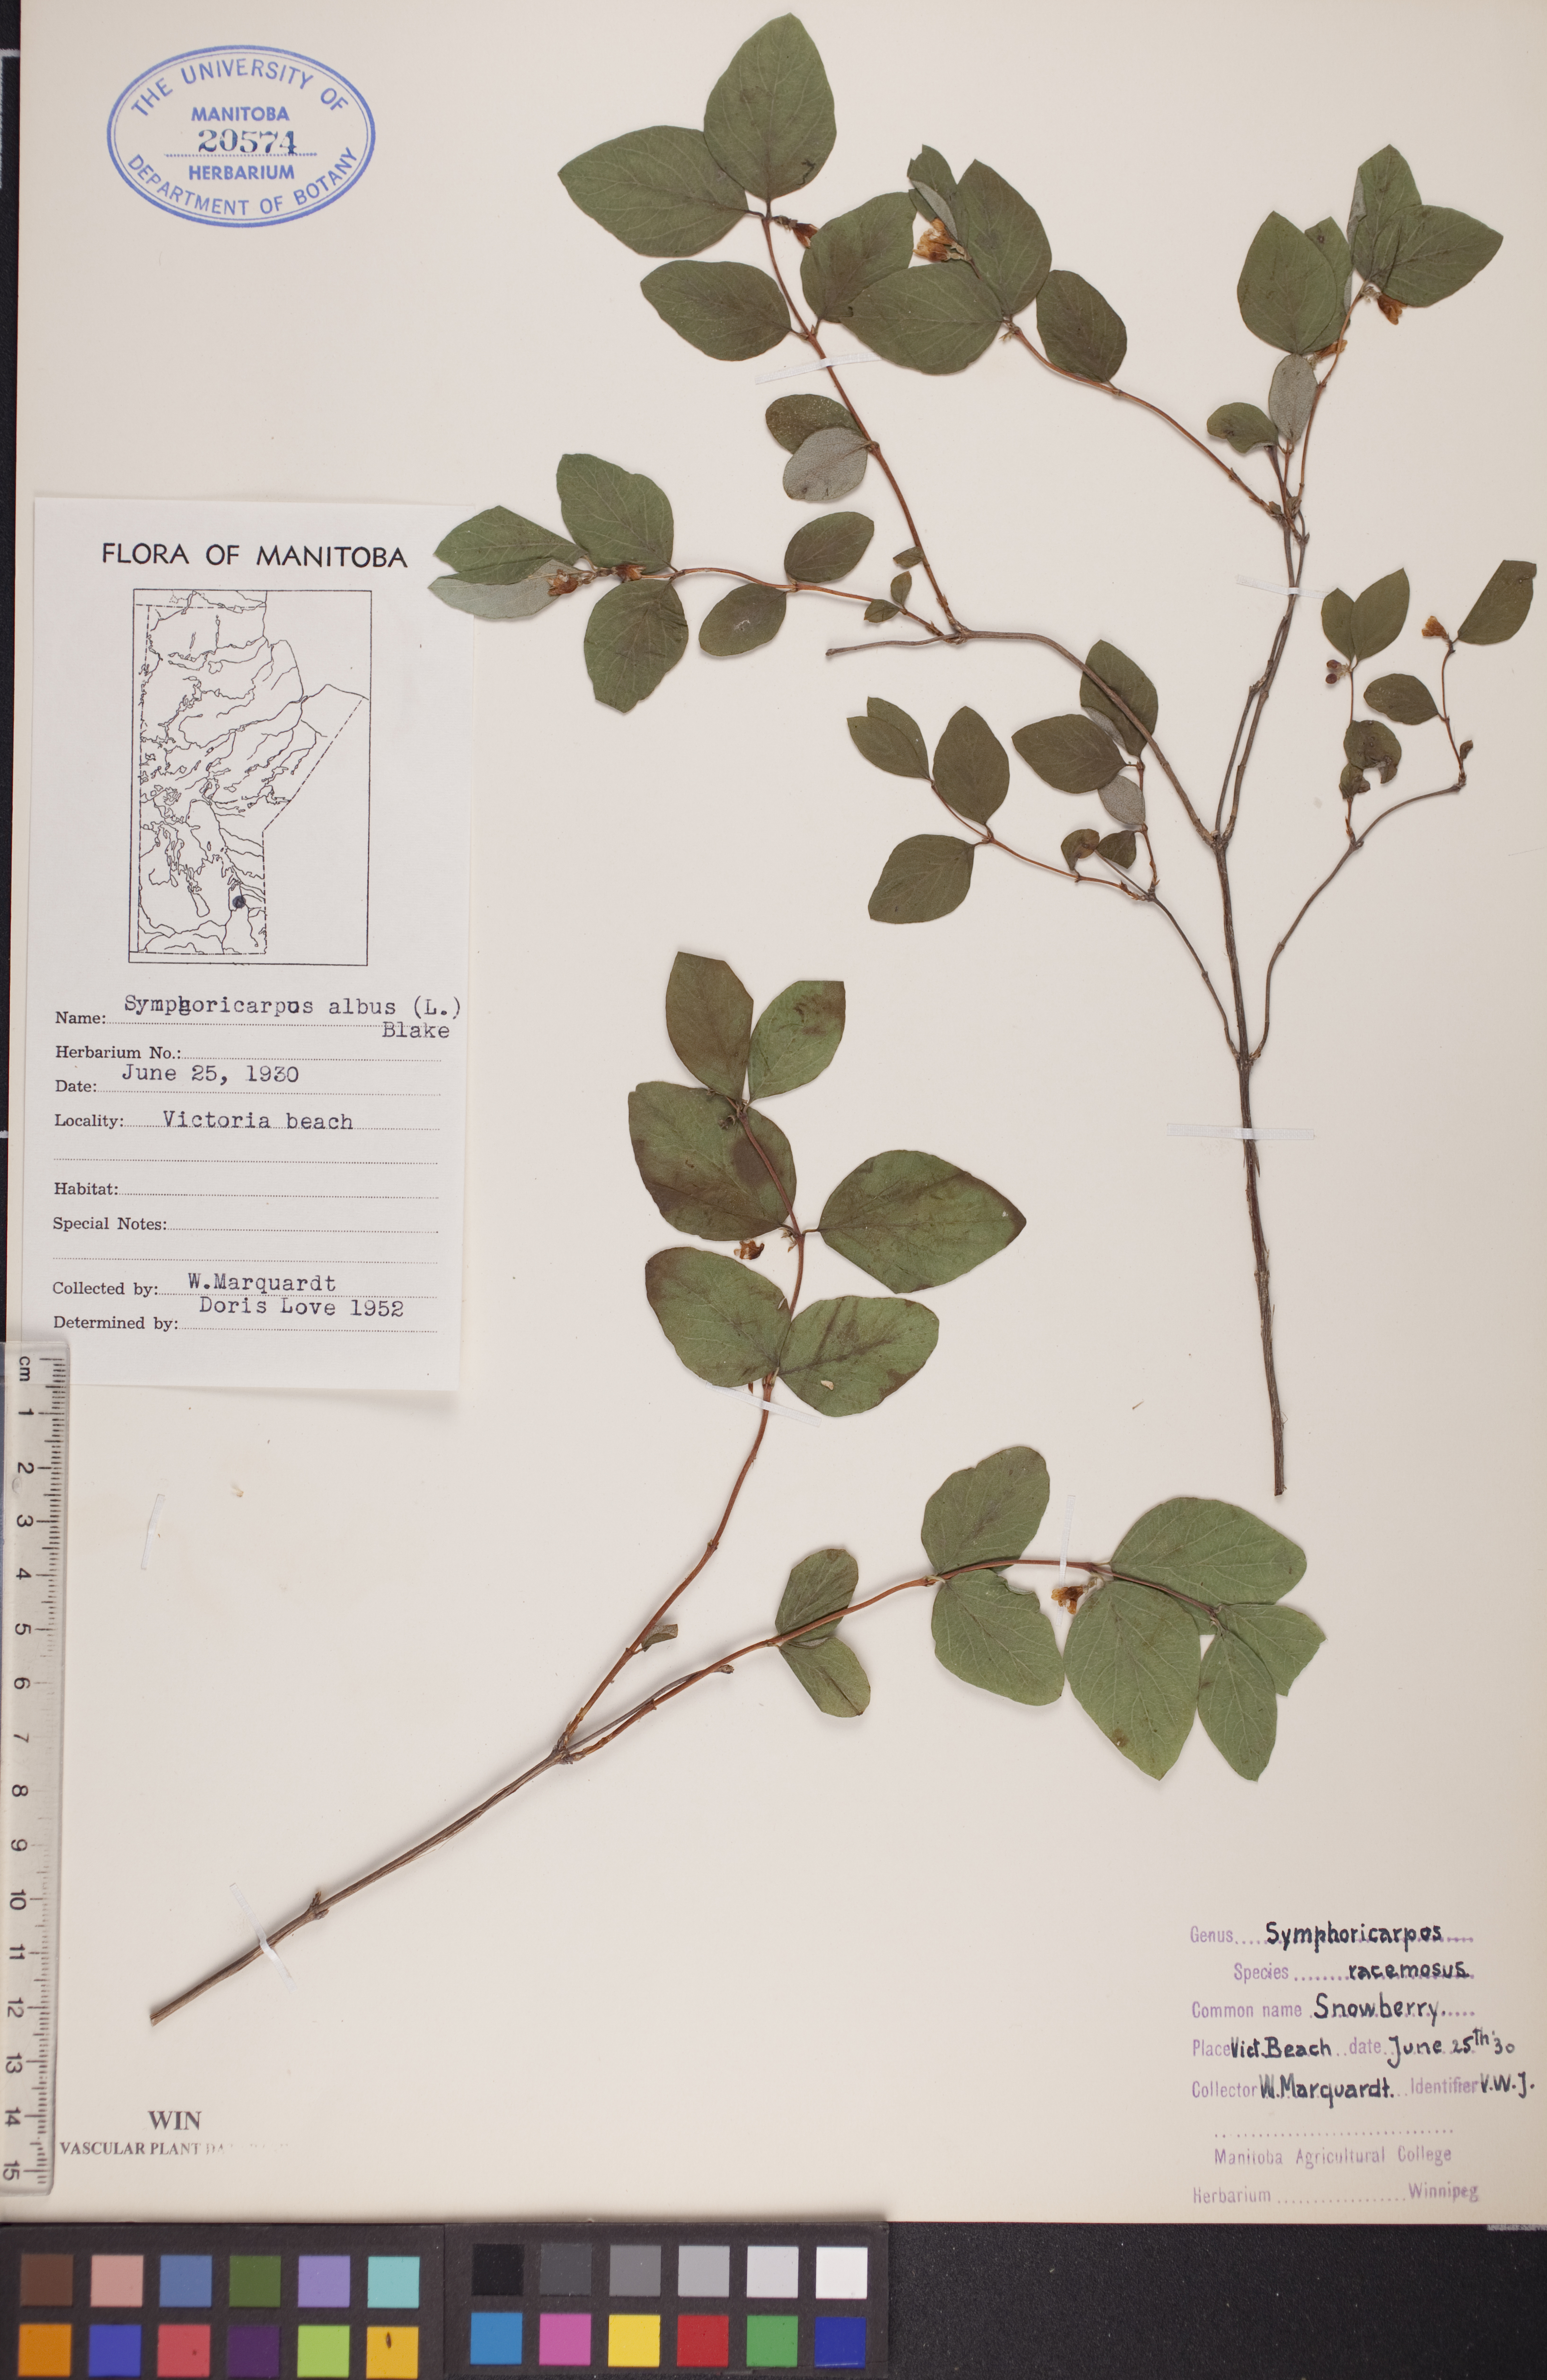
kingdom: Plantae
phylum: Tracheophyta
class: Magnoliopsida
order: Dipsacales
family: Caprifoliaceae
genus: Symphoricarpos
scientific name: Symphoricarpos albus
